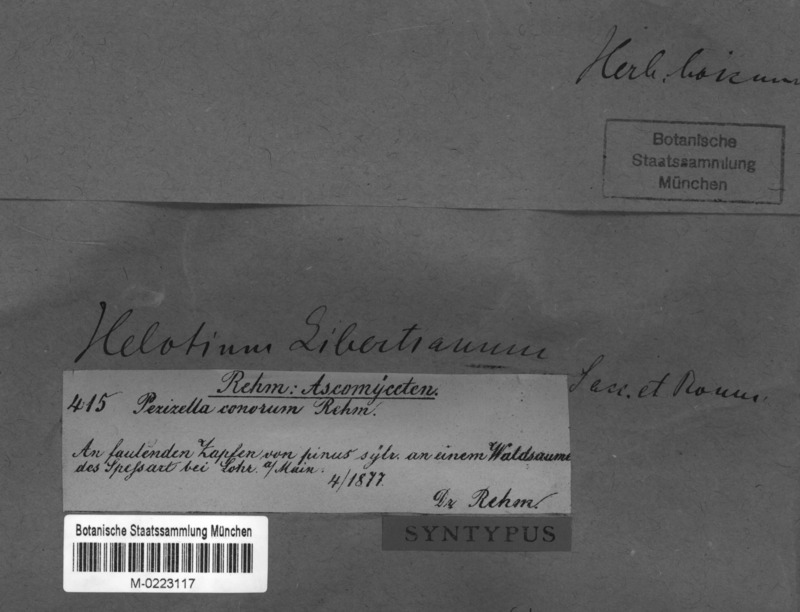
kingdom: Fungi
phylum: Ascomycota
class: Leotiomycetes
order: Helotiales
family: Pezizellaceae
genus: Calycina
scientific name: Calycina conorum
